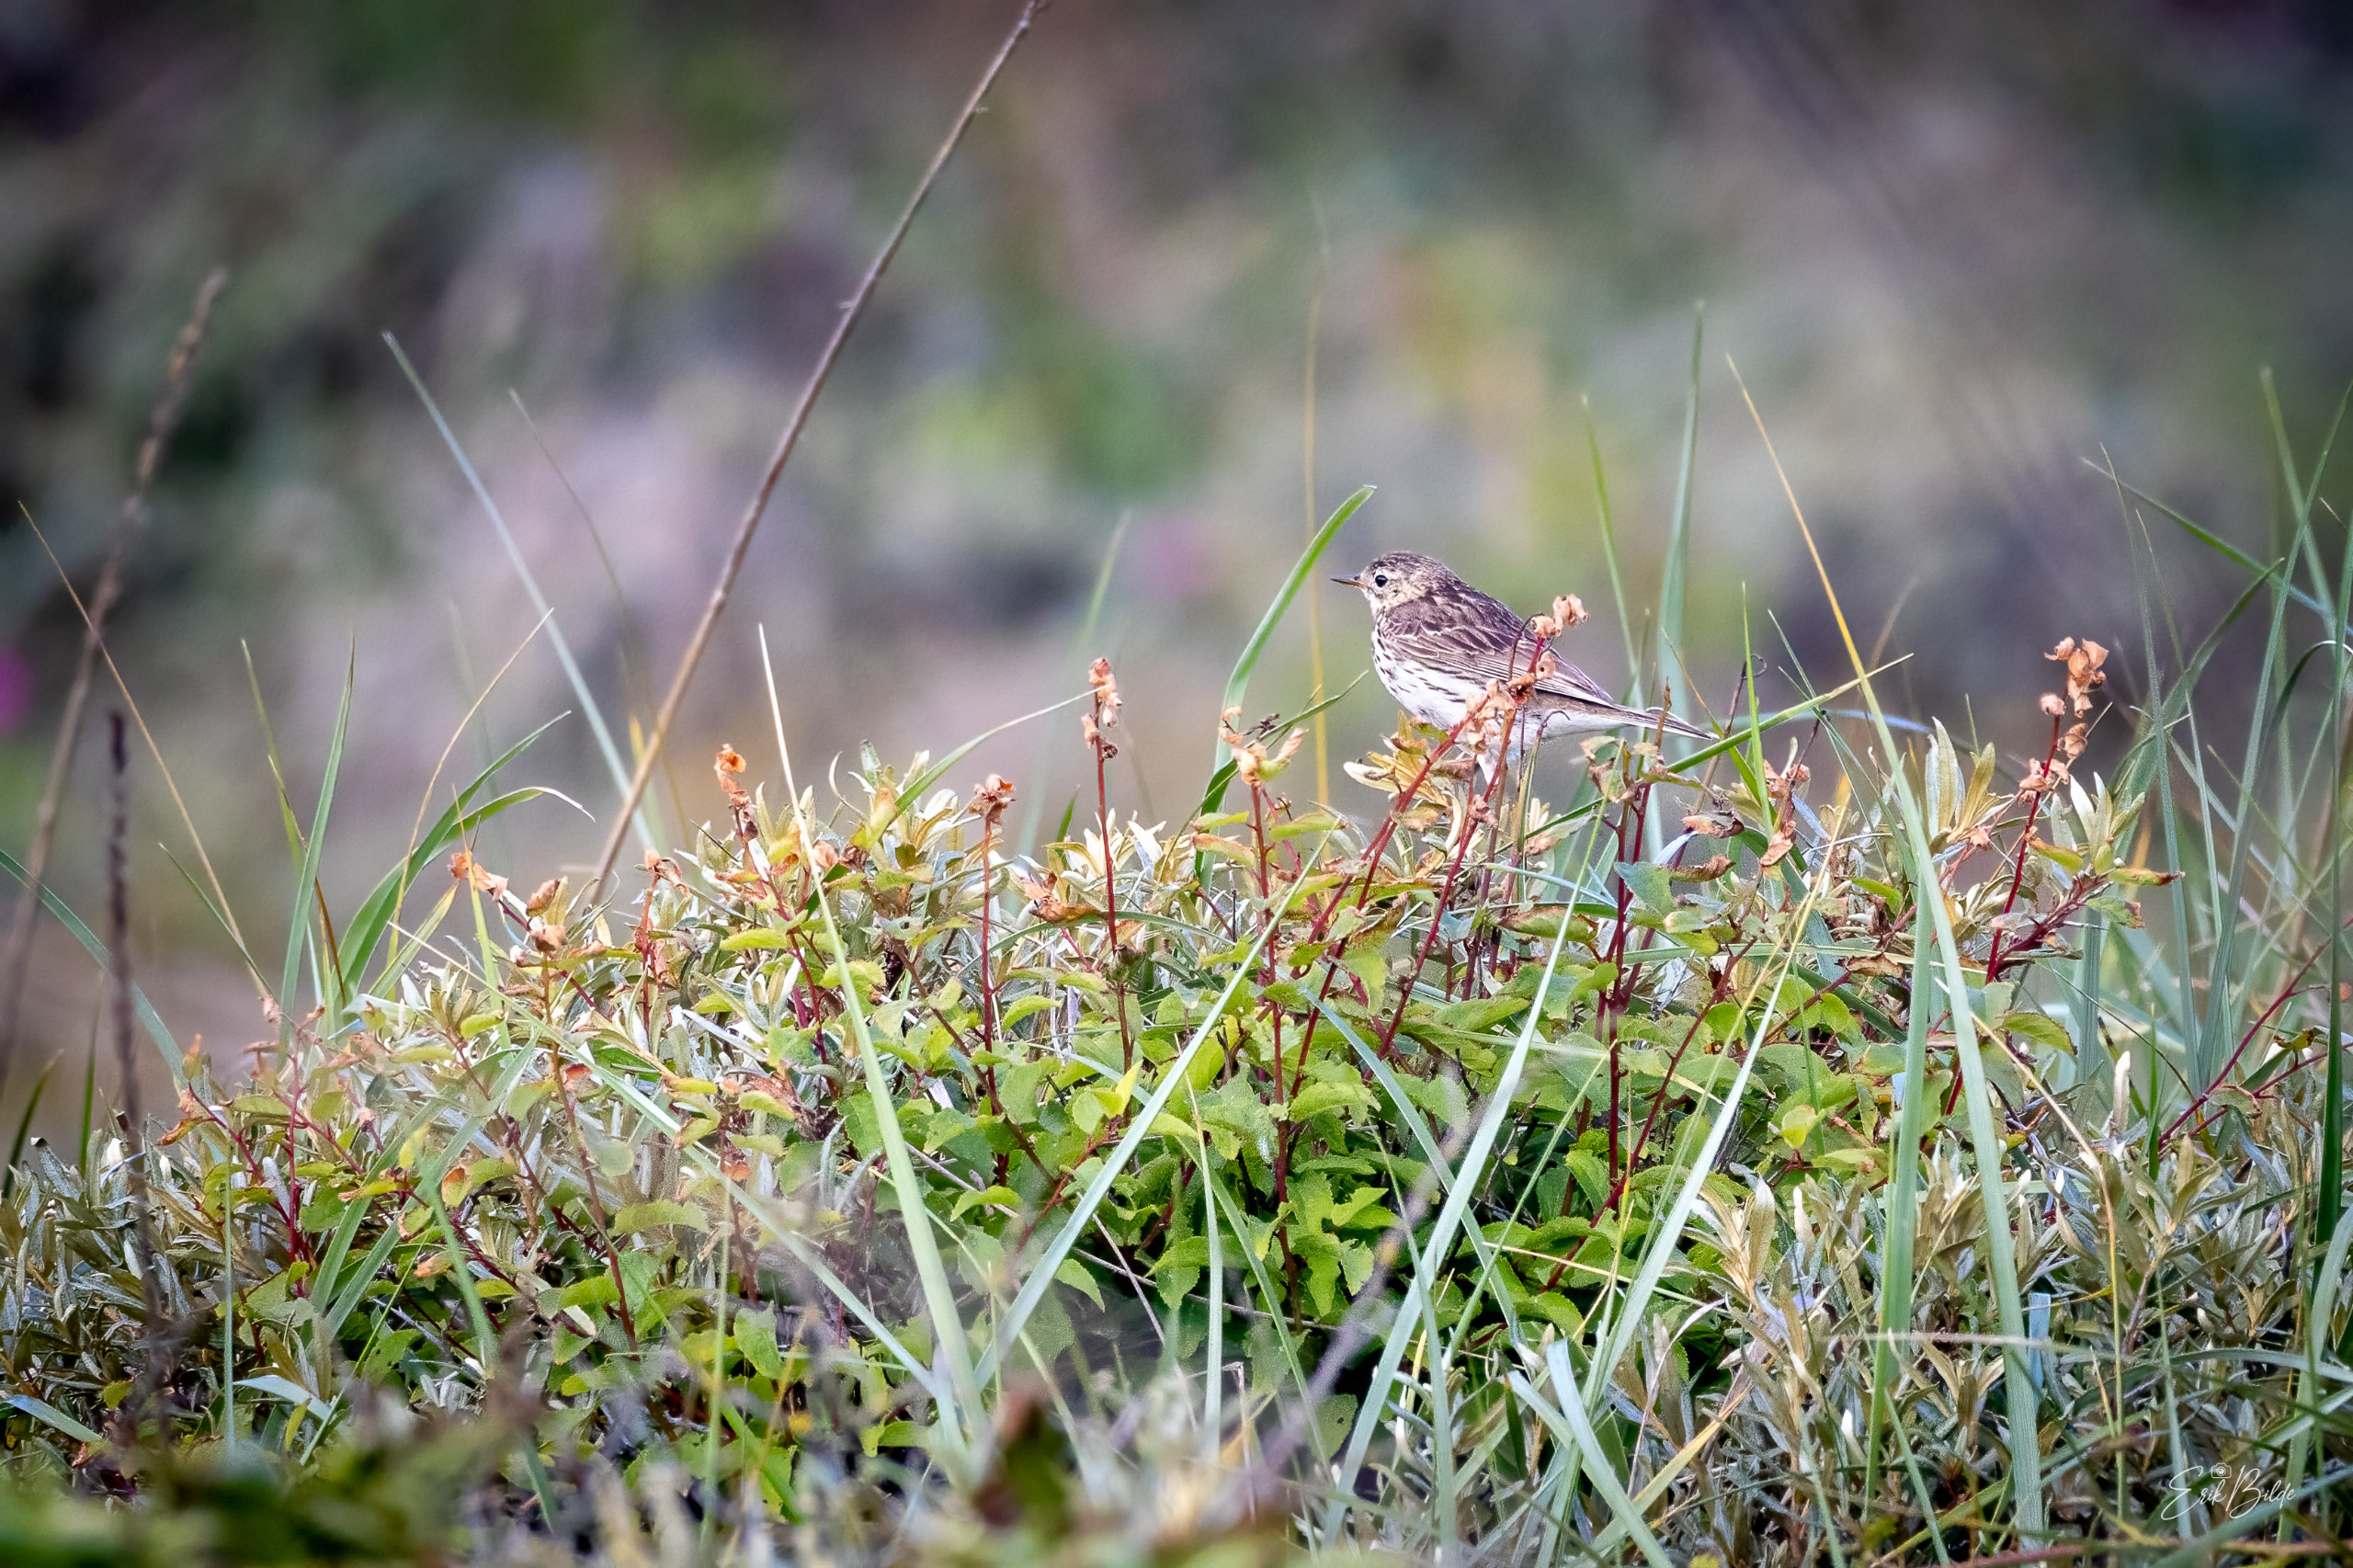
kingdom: Animalia
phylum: Chordata
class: Aves
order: Passeriformes
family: Motacillidae
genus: Anthus
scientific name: Anthus pratensis
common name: Engpiber
